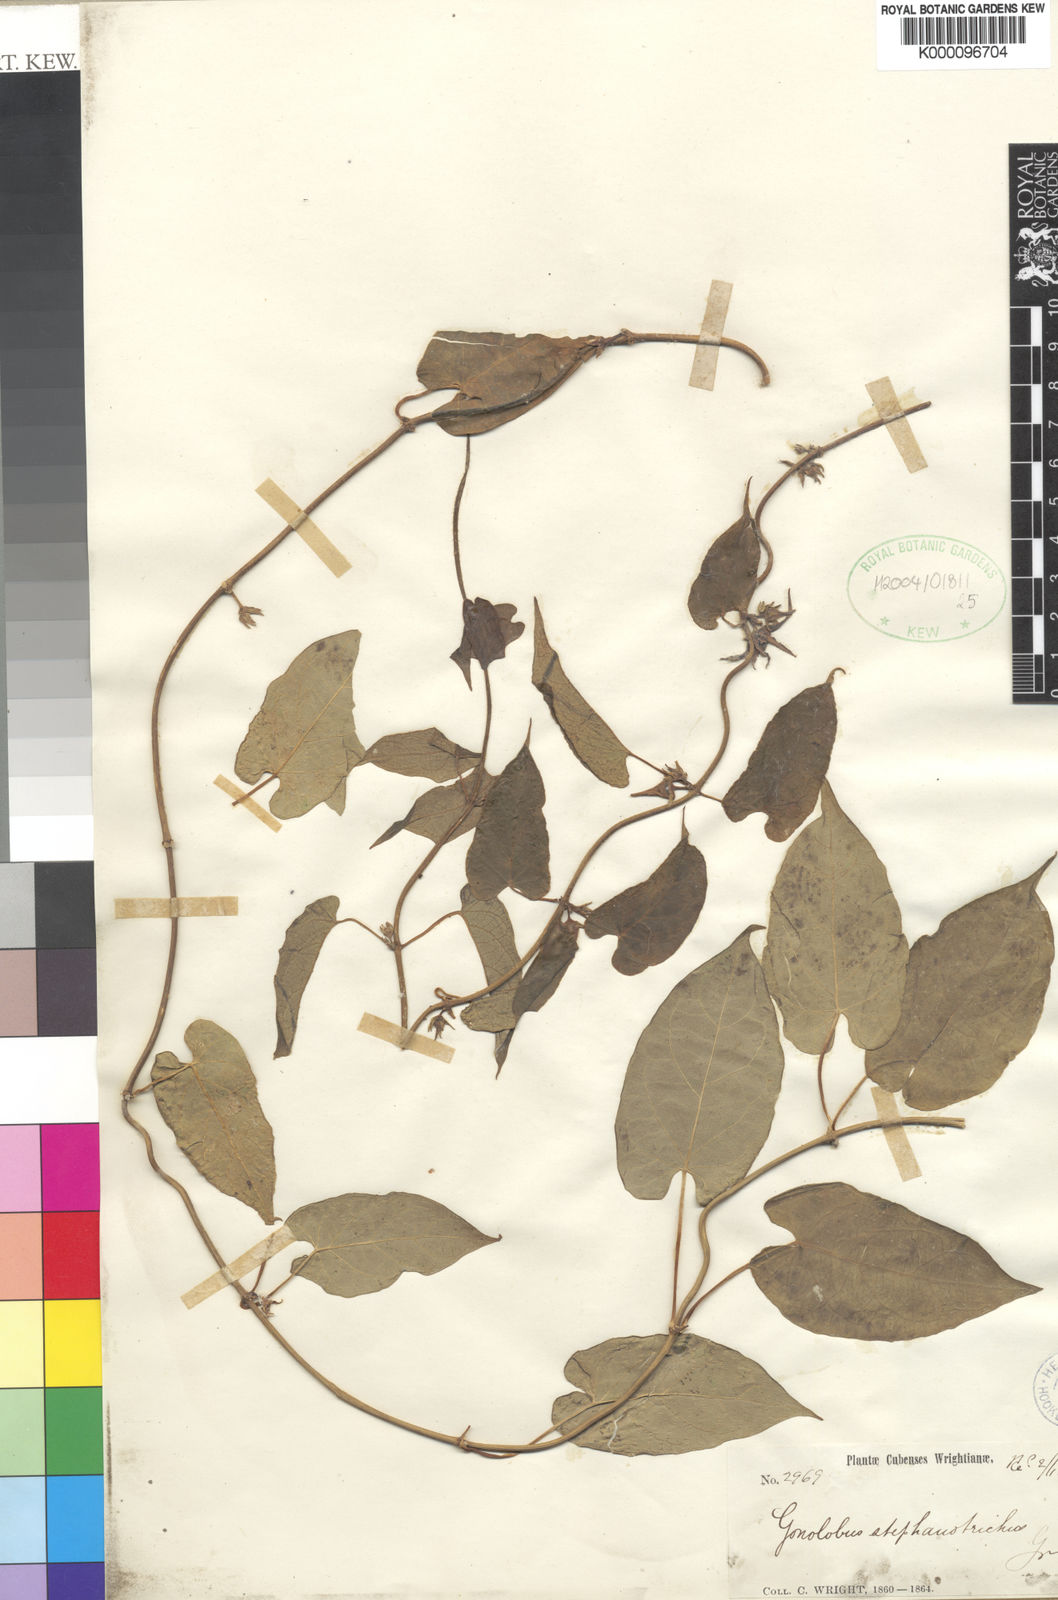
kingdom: Plantae
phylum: Tracheophyta
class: Magnoliopsida
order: Gentianales
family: Apocynaceae
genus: Gonolobus
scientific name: Gonolobus stephanotrichus
